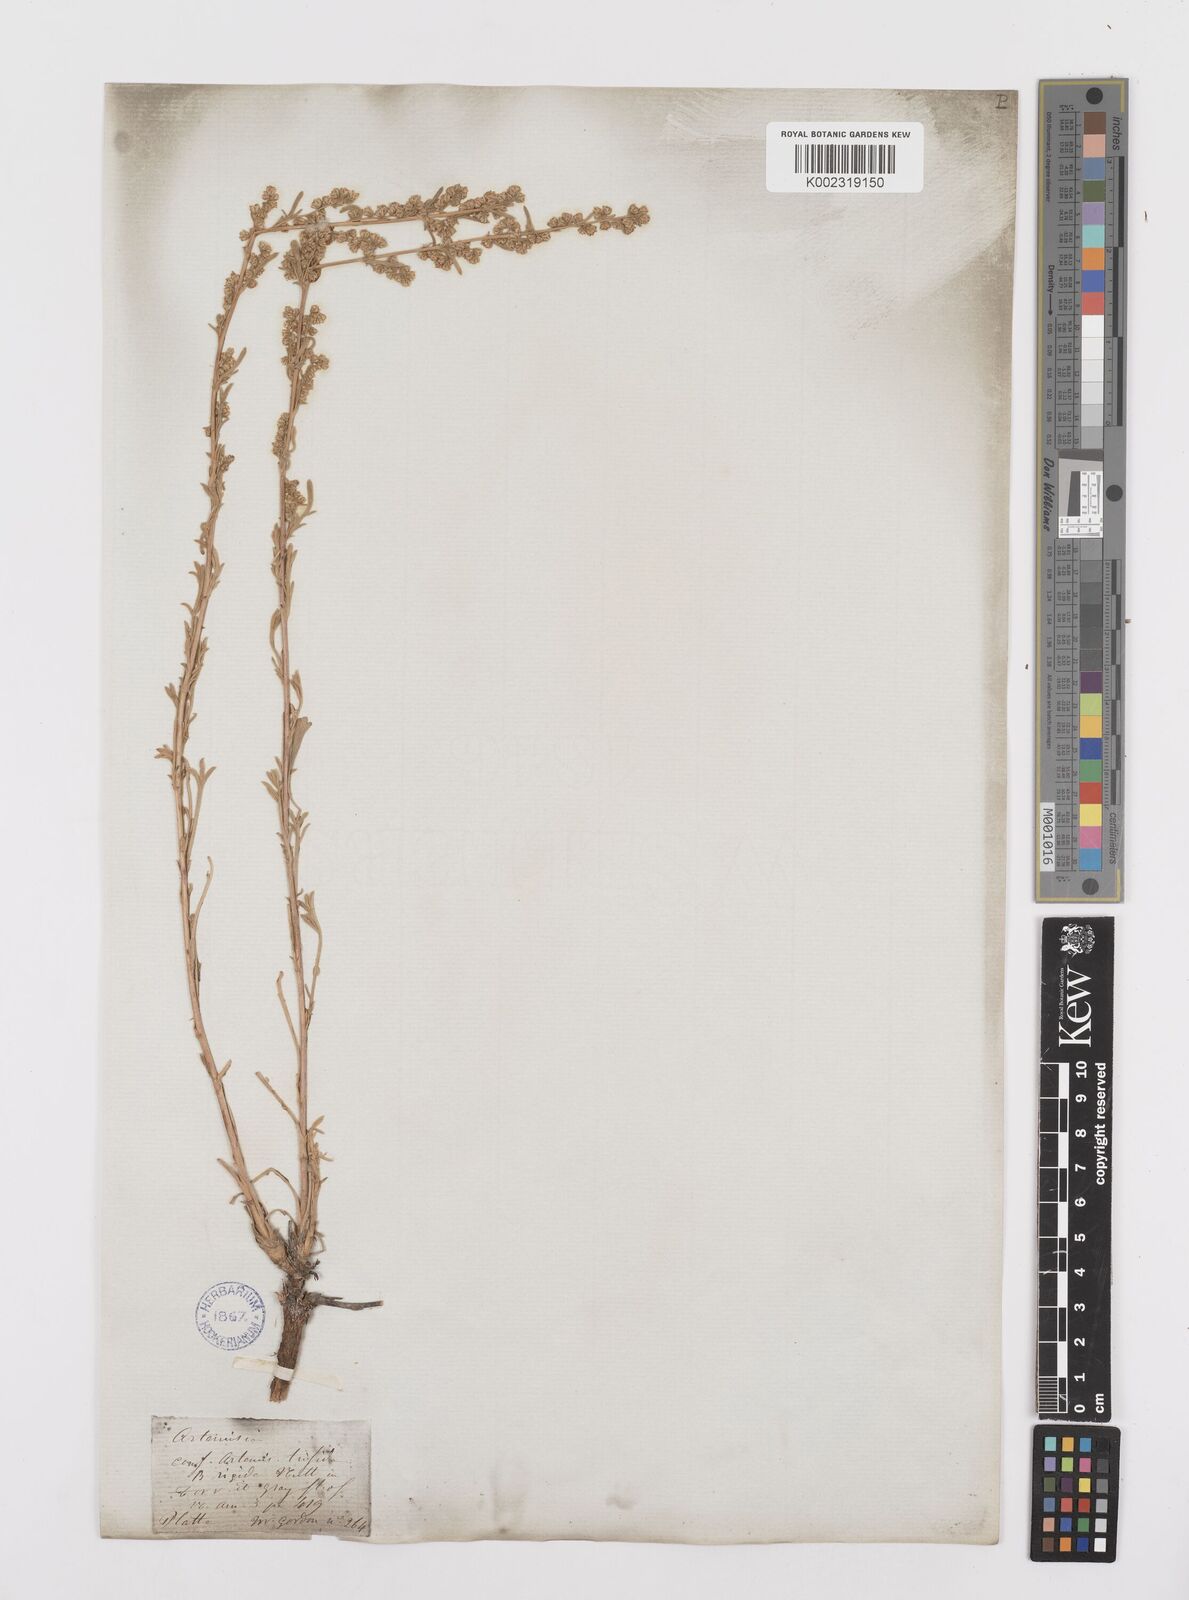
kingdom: Plantae
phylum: Tracheophyta
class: Magnoliopsida
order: Asterales
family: Asteraceae
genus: Artemisia
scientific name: Artemisia tridentata
